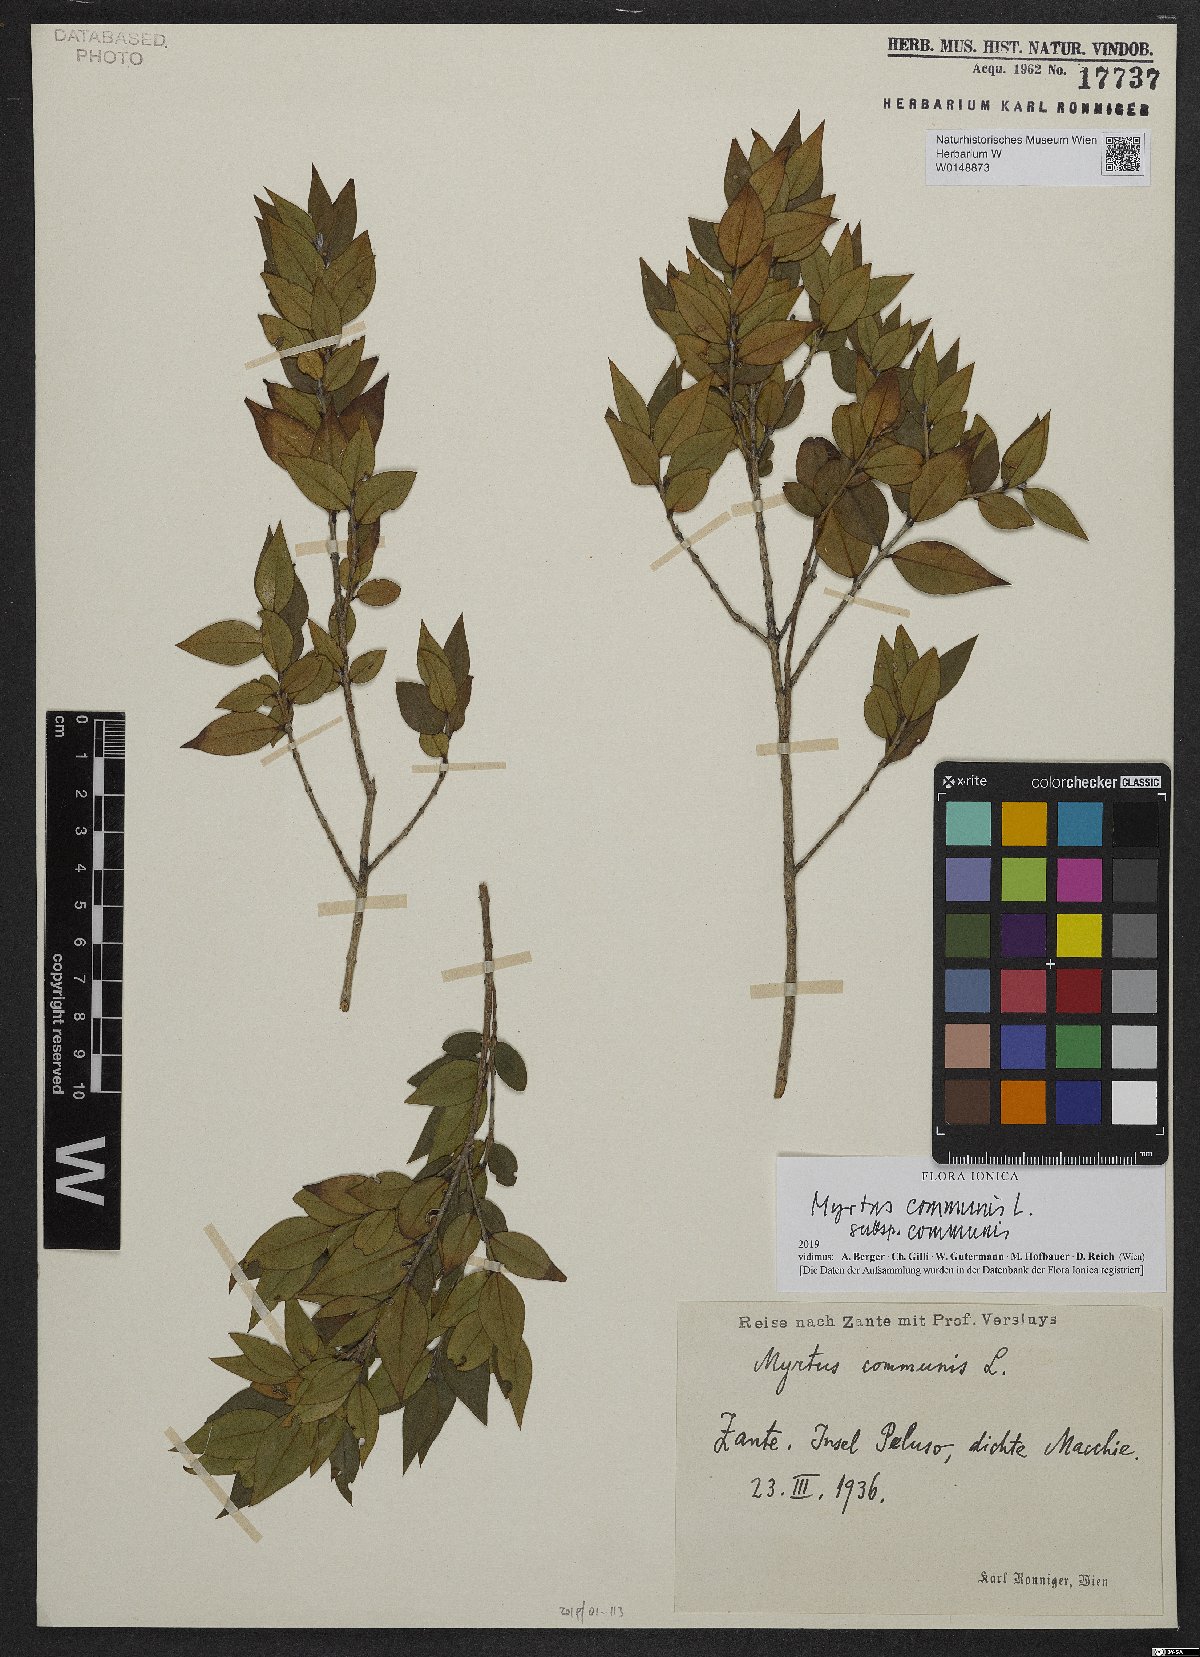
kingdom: Plantae
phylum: Tracheophyta
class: Magnoliopsida
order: Myrtales
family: Myrtaceae
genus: Myrtus
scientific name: Myrtus communis
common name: Myrtle
